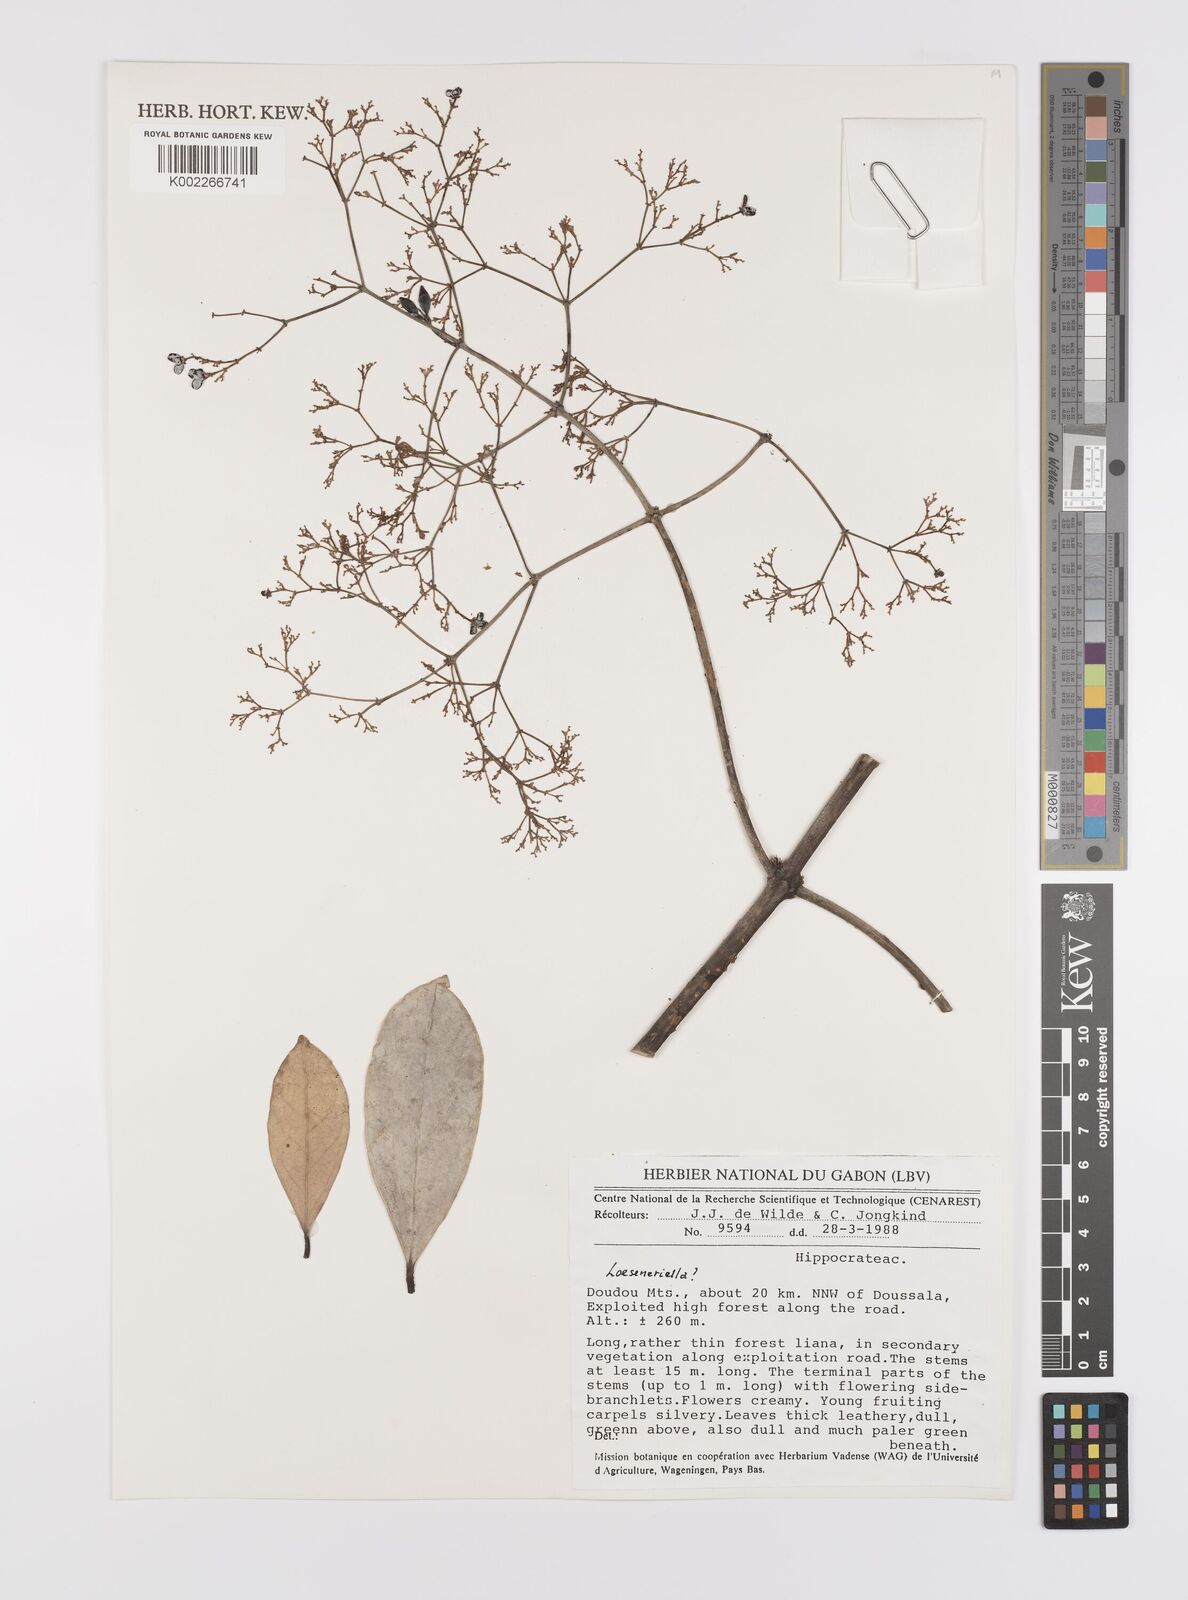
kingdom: Plantae
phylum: Tracheophyta
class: Magnoliopsida
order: Celastrales
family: Celastraceae
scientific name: Celastraceae
